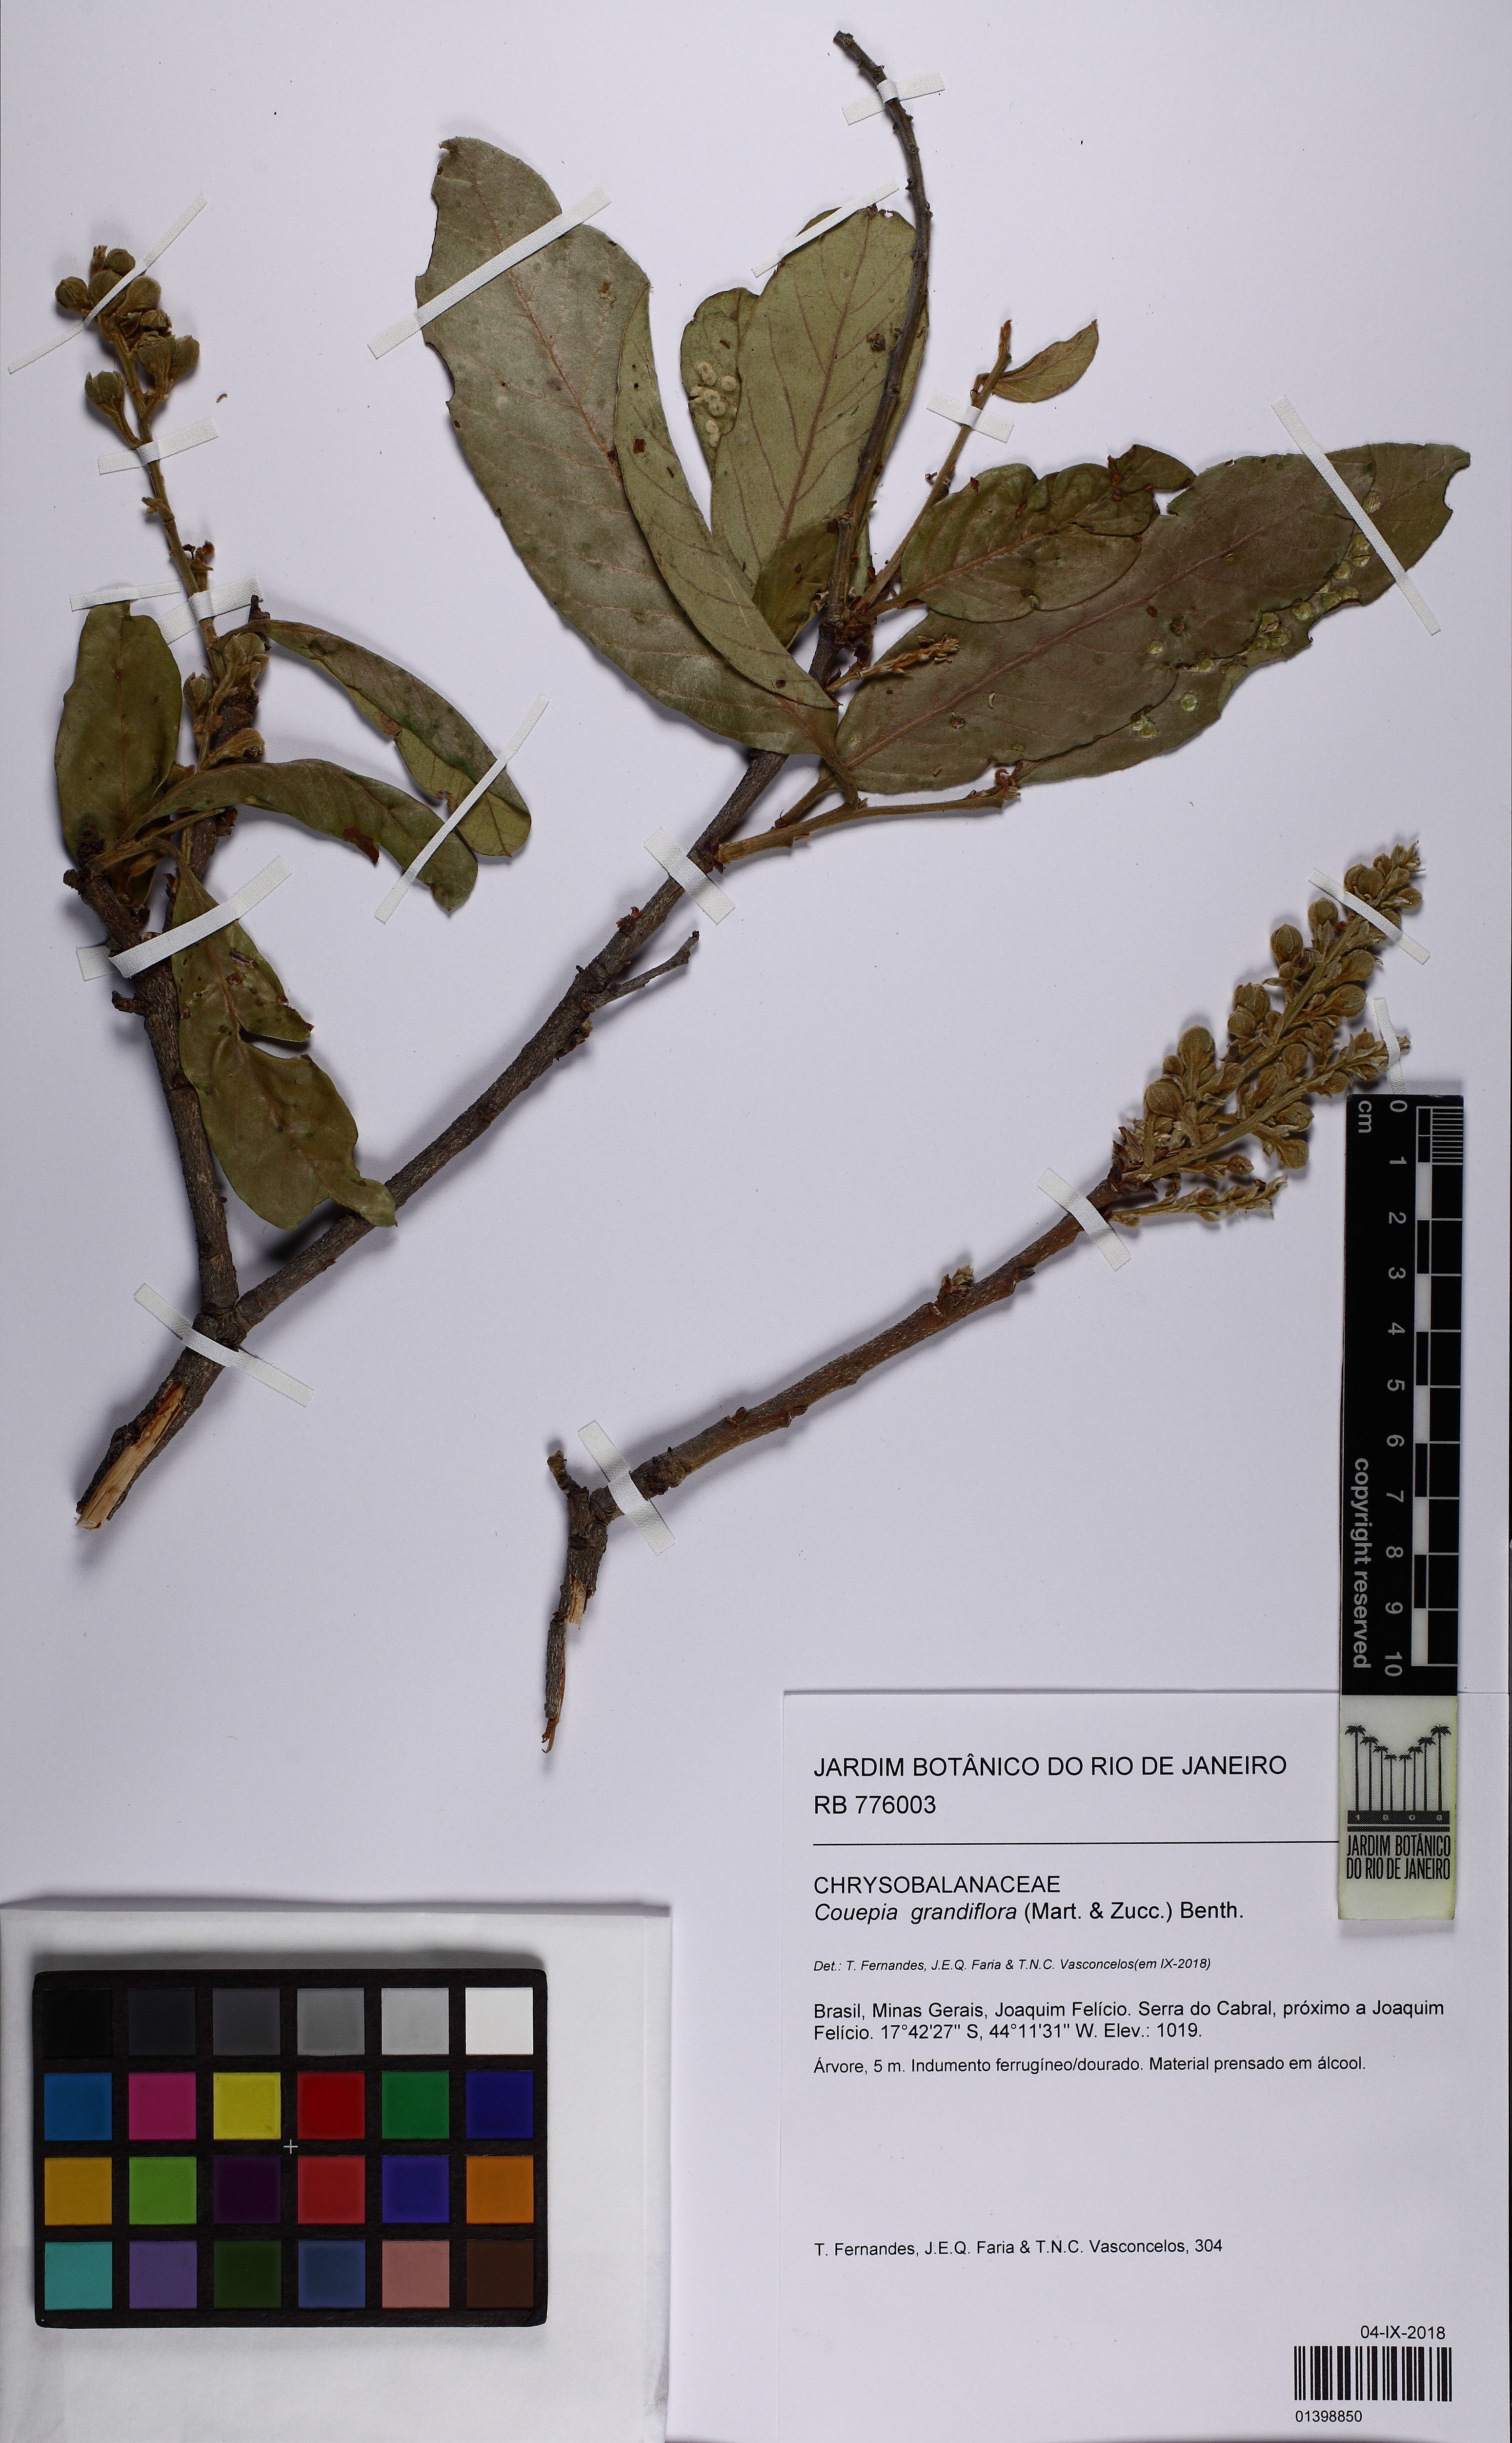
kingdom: Plantae
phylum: Tracheophyta
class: Magnoliopsida
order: Malpighiales
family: Chrysobalanaceae
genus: Couepia
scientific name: Couepia grandiflora
